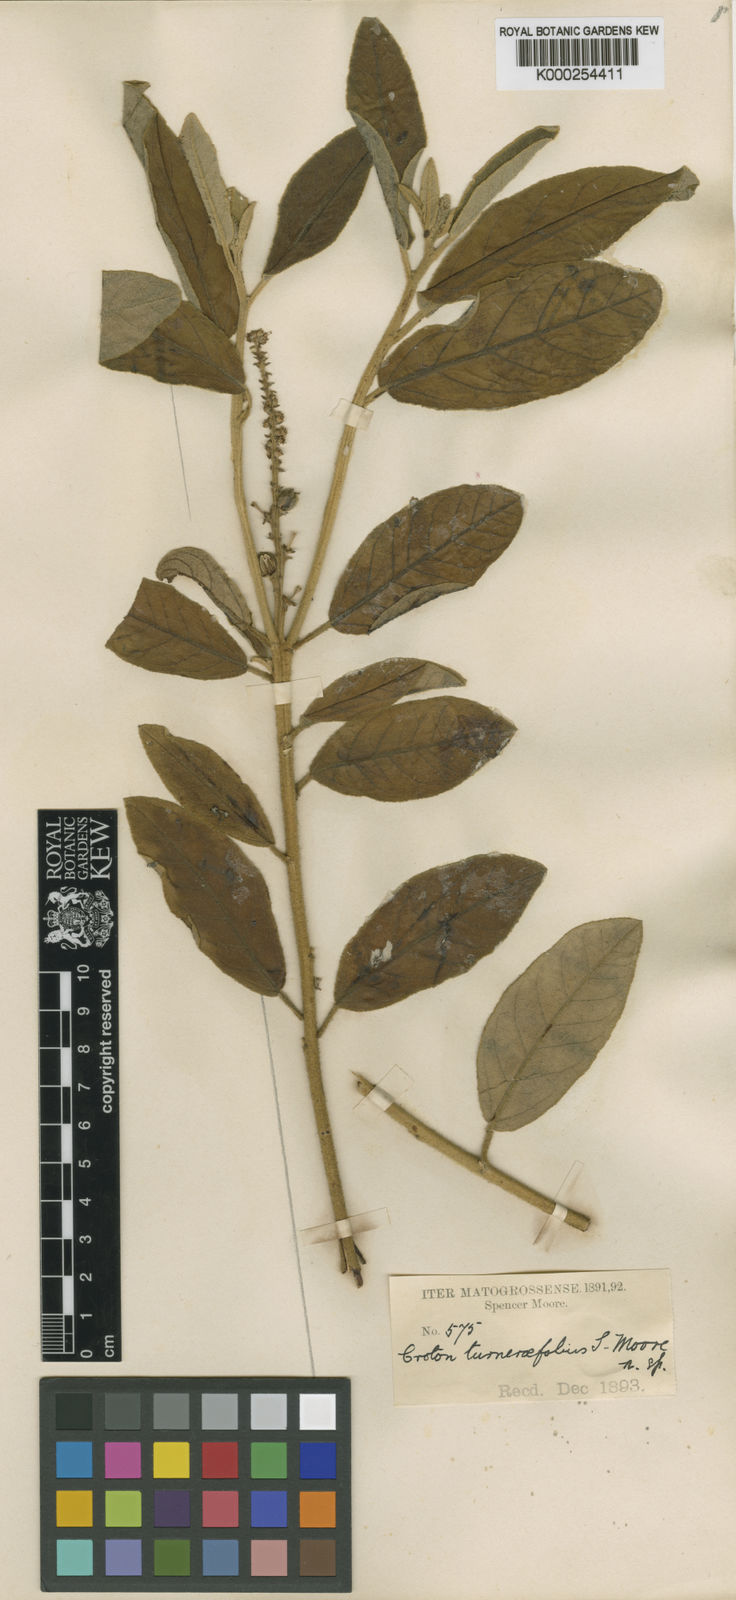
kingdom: Plantae
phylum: Tracheophyta
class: Magnoliopsida
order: Malpighiales
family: Euphorbiaceae
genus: Croton
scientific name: Croton fulvus
